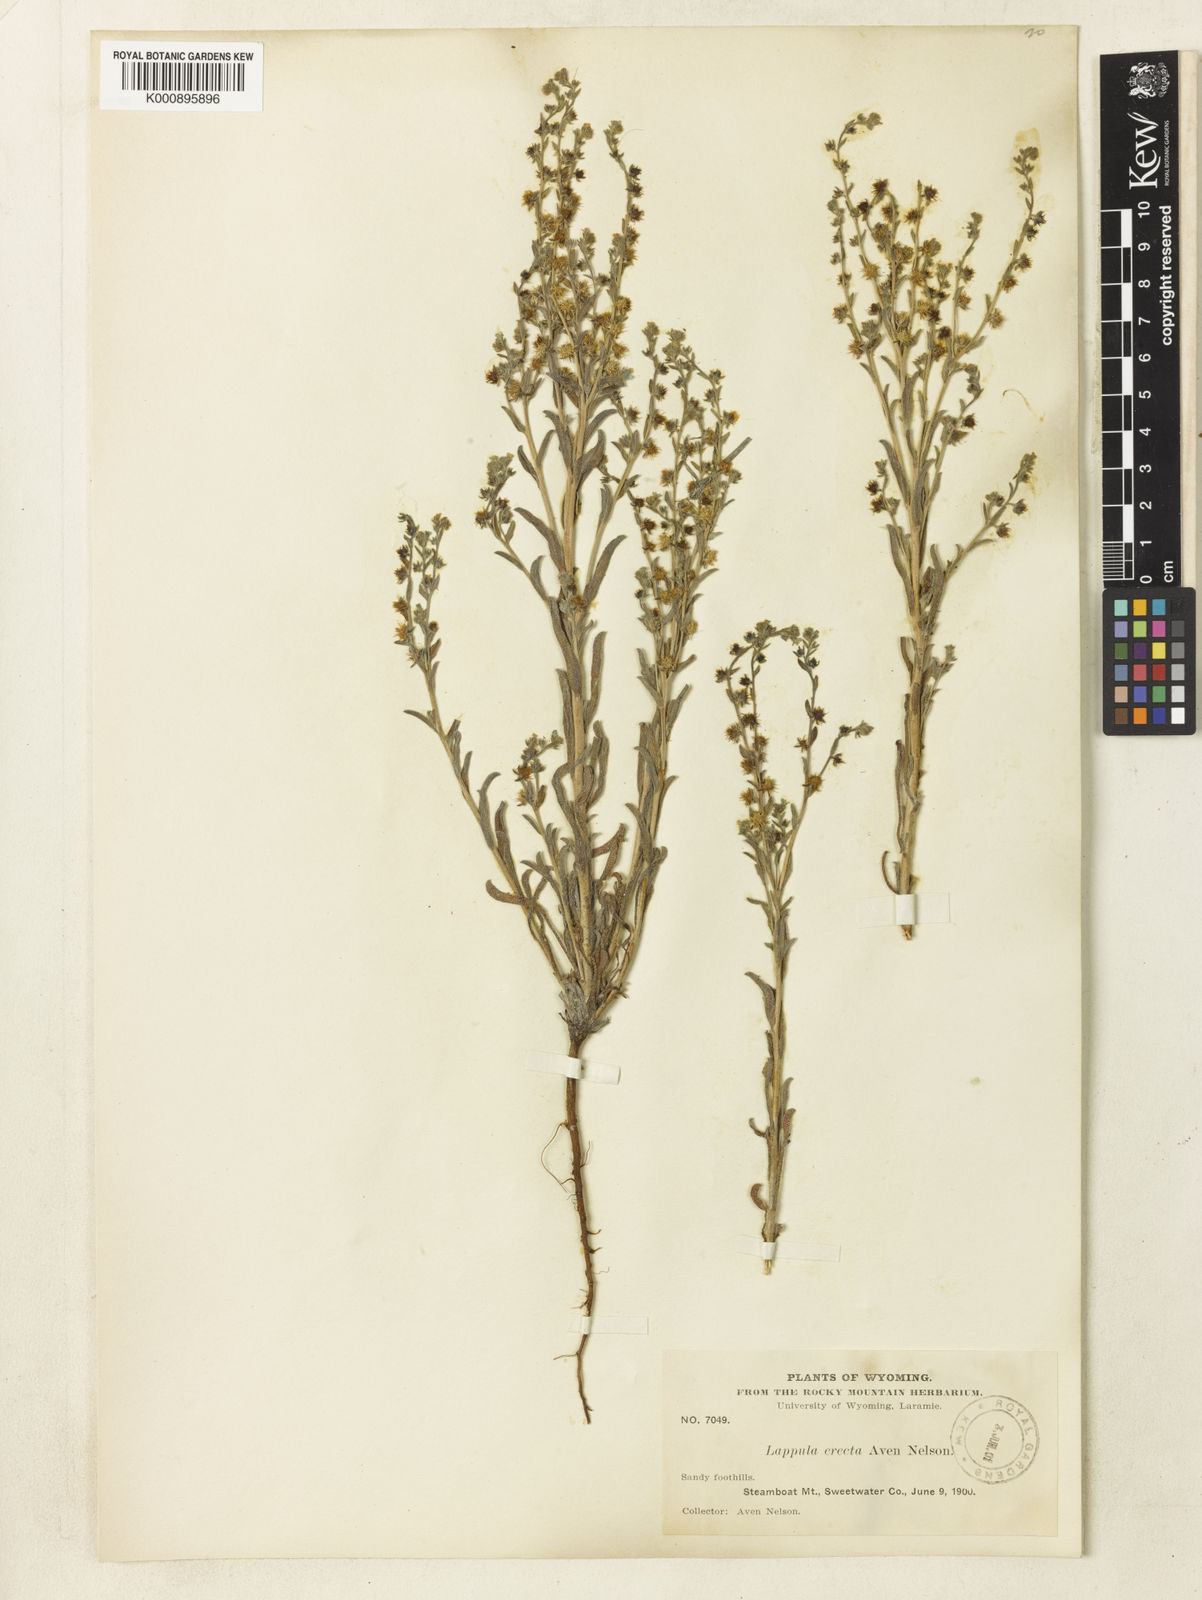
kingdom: Plantae
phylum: Tracheophyta
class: Magnoliopsida
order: Boraginales
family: Boraginaceae
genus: Lappula
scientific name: Lappula squarrosa
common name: European stickseed
